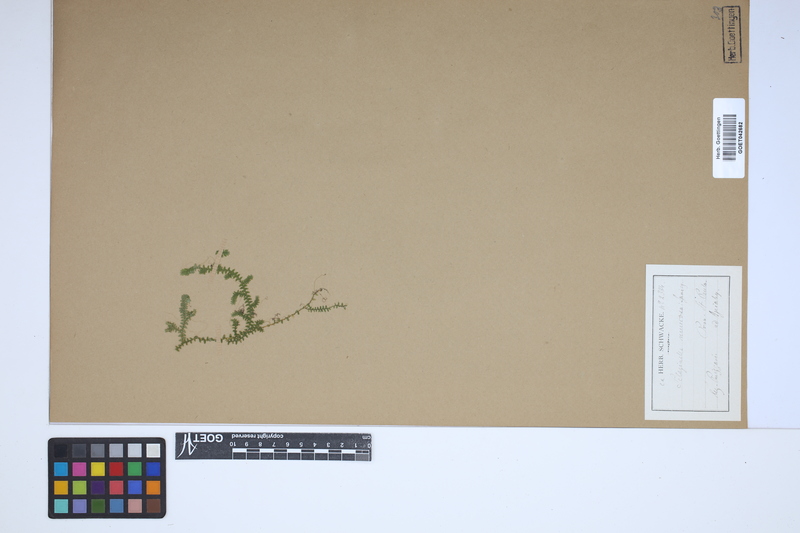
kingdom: Plantae
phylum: Tracheophyta
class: Lycopodiopsida
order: Selaginellales
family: Selaginellaceae
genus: Selaginella
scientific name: Selaginella muscosa
